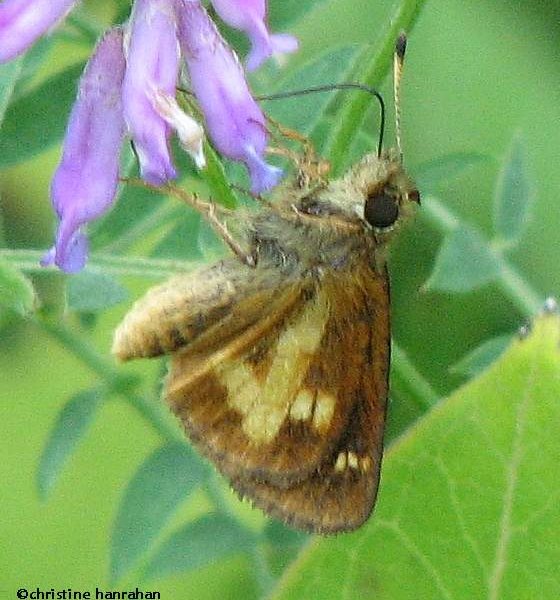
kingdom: Animalia
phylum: Arthropoda
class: Insecta
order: Lepidoptera
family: Hesperiidae
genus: Poanes
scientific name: Poanes massasoit
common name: Mulberry Wing
